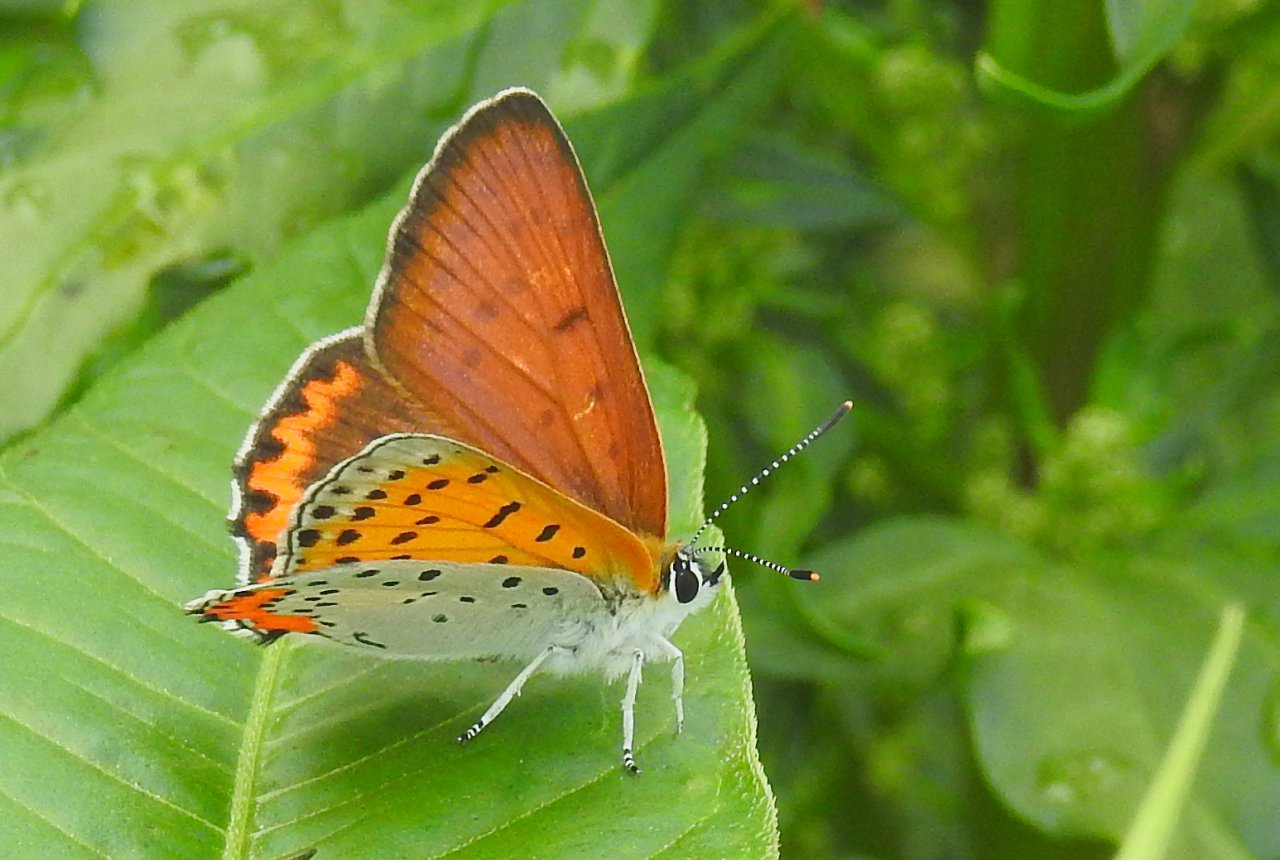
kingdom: Animalia
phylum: Arthropoda
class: Insecta
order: Lepidoptera
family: Sesiidae
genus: Sesia
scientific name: Sesia Lycaena hyllus
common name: Bronze Copper
